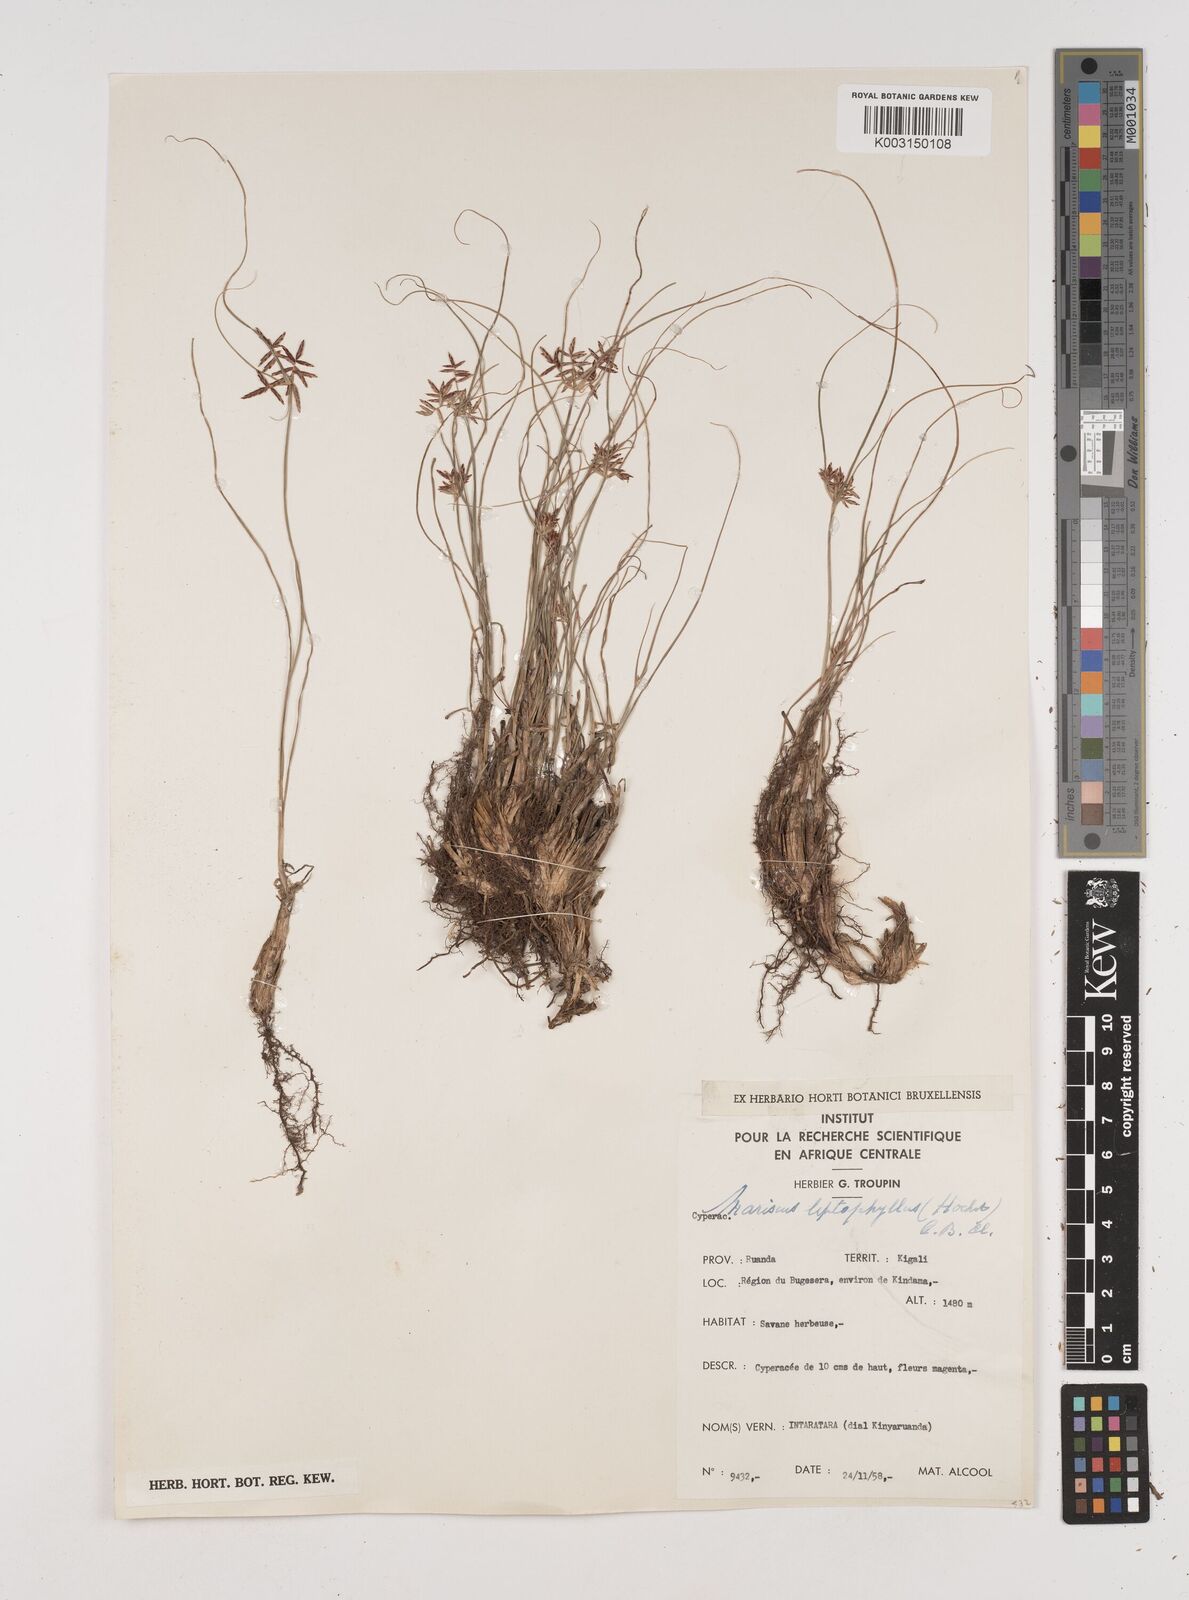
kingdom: Plantae
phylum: Tracheophyta
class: Liliopsida
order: Poales
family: Cyperaceae
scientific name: Cyperaceae
